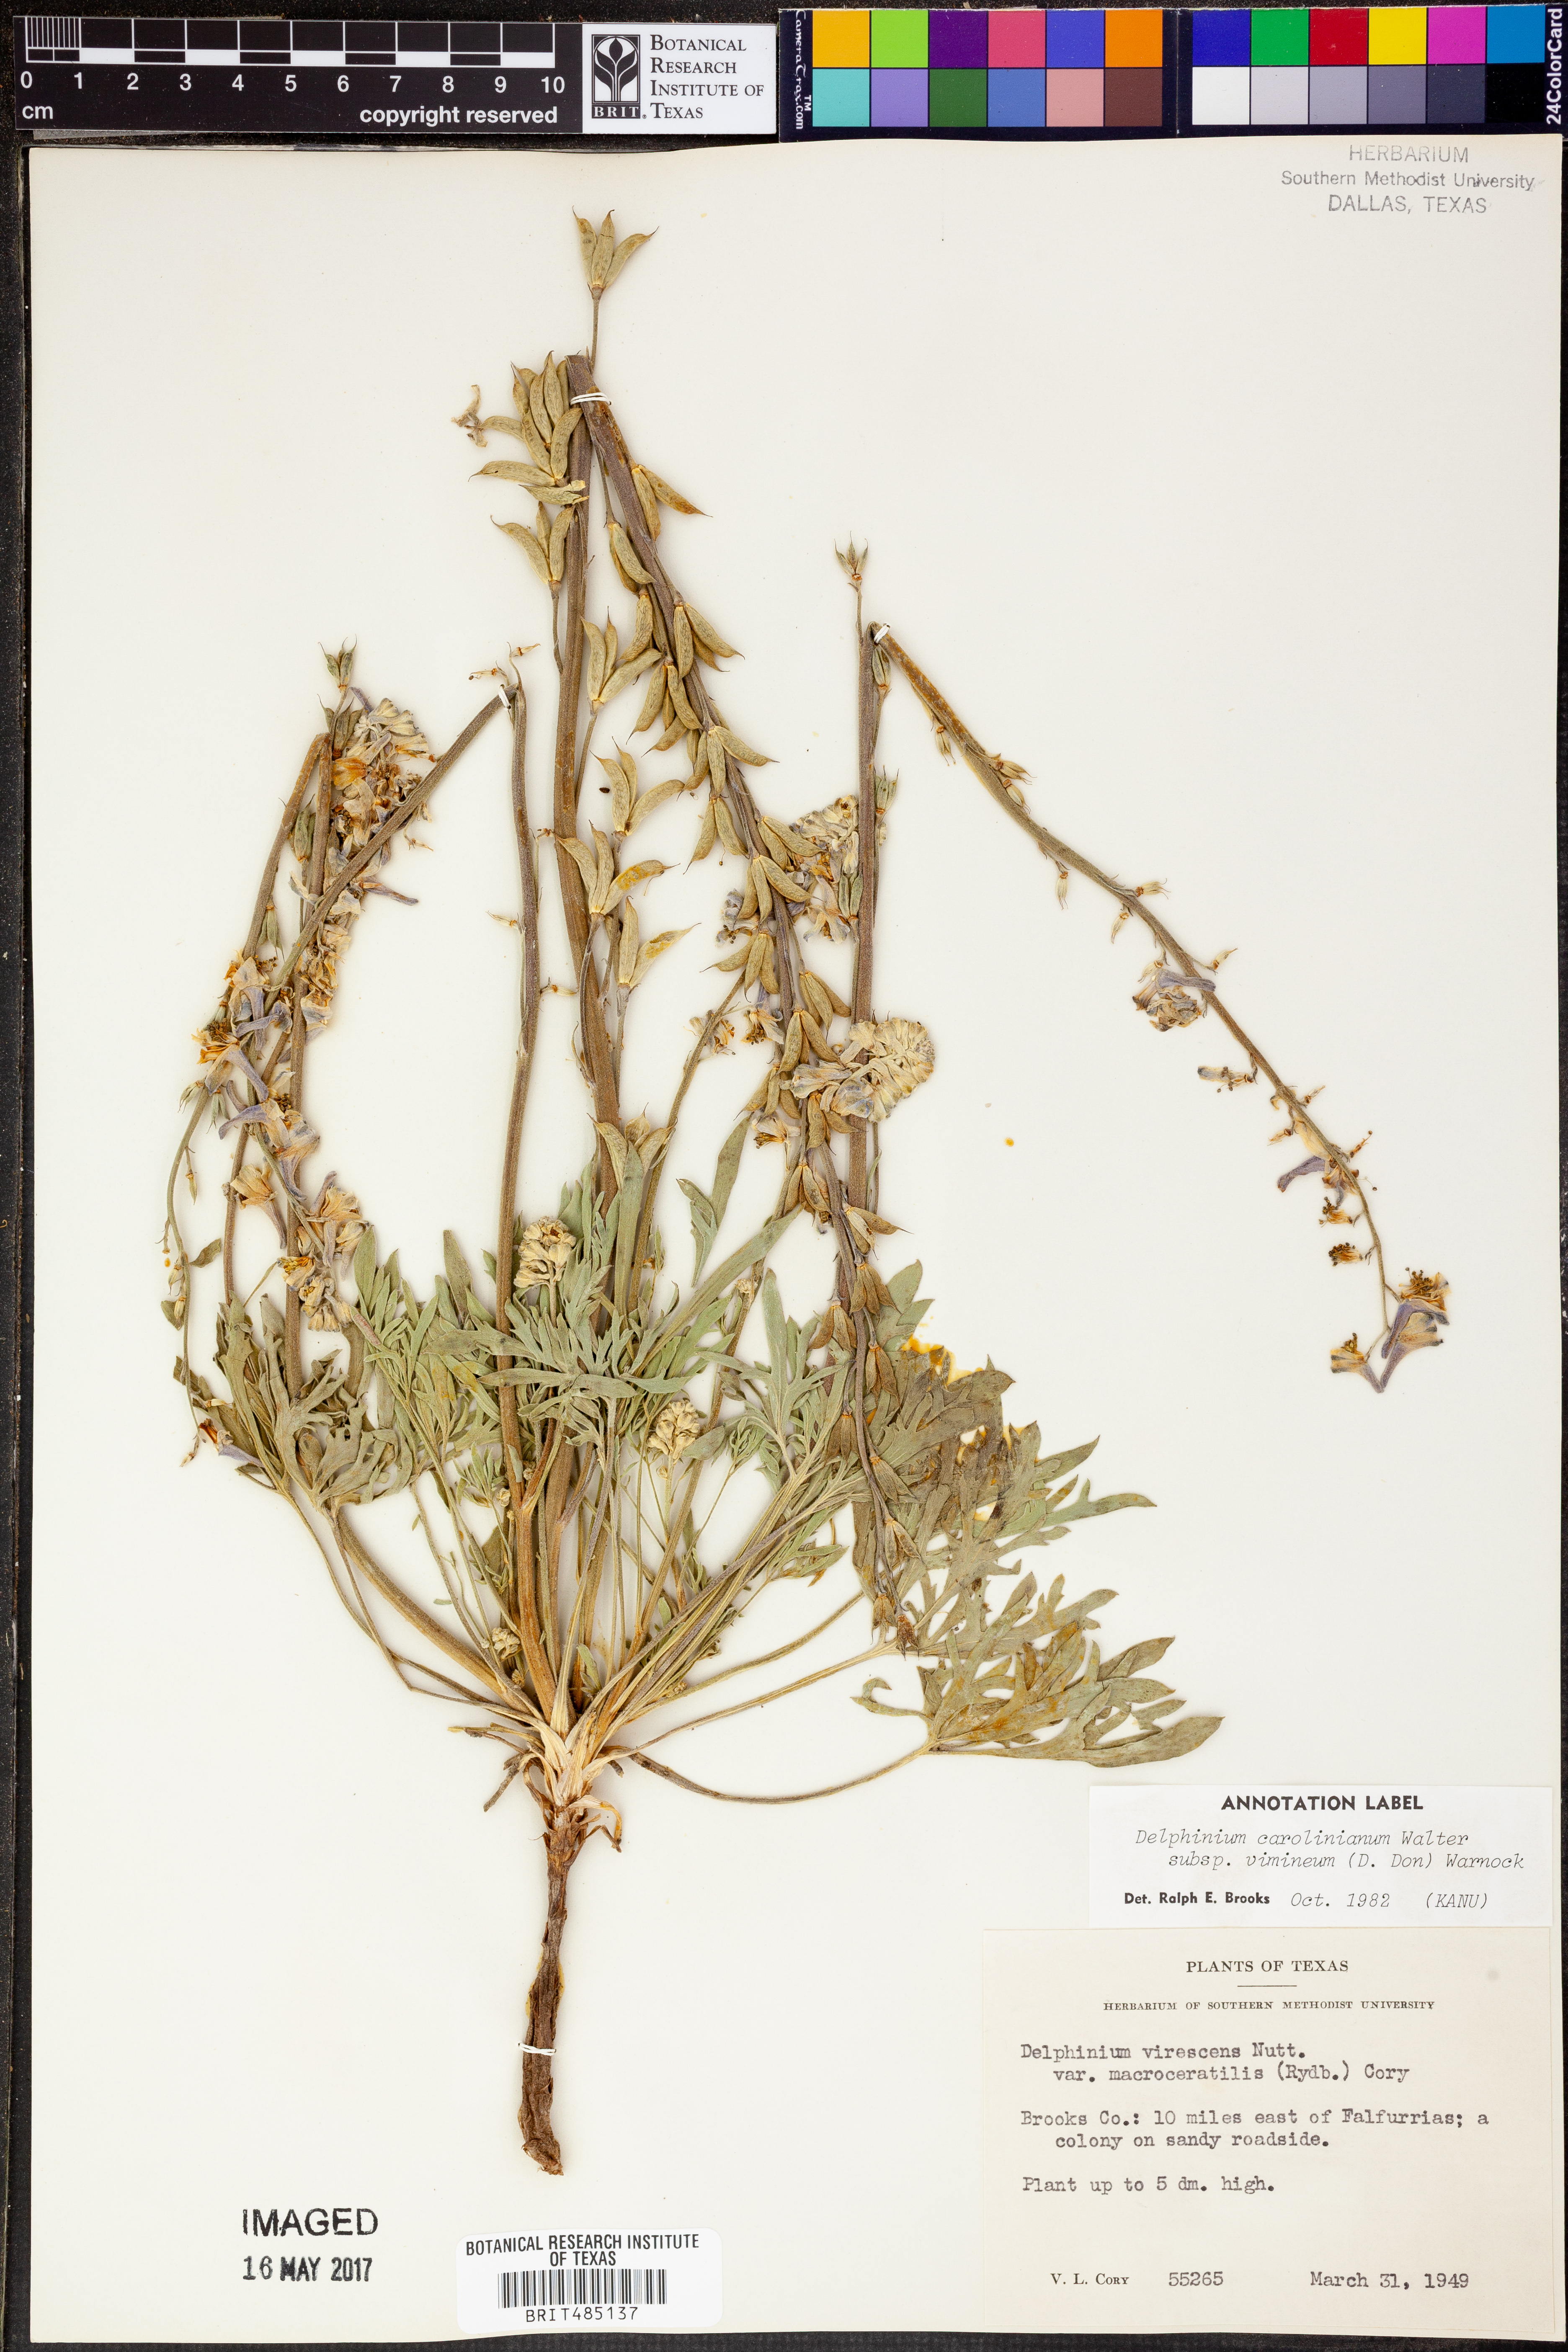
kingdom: Plantae
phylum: Tracheophyta
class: Magnoliopsida
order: Ranunculales
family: Ranunculaceae
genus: Delphinium
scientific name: Delphinium carolinianum
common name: Carolina larkspur
